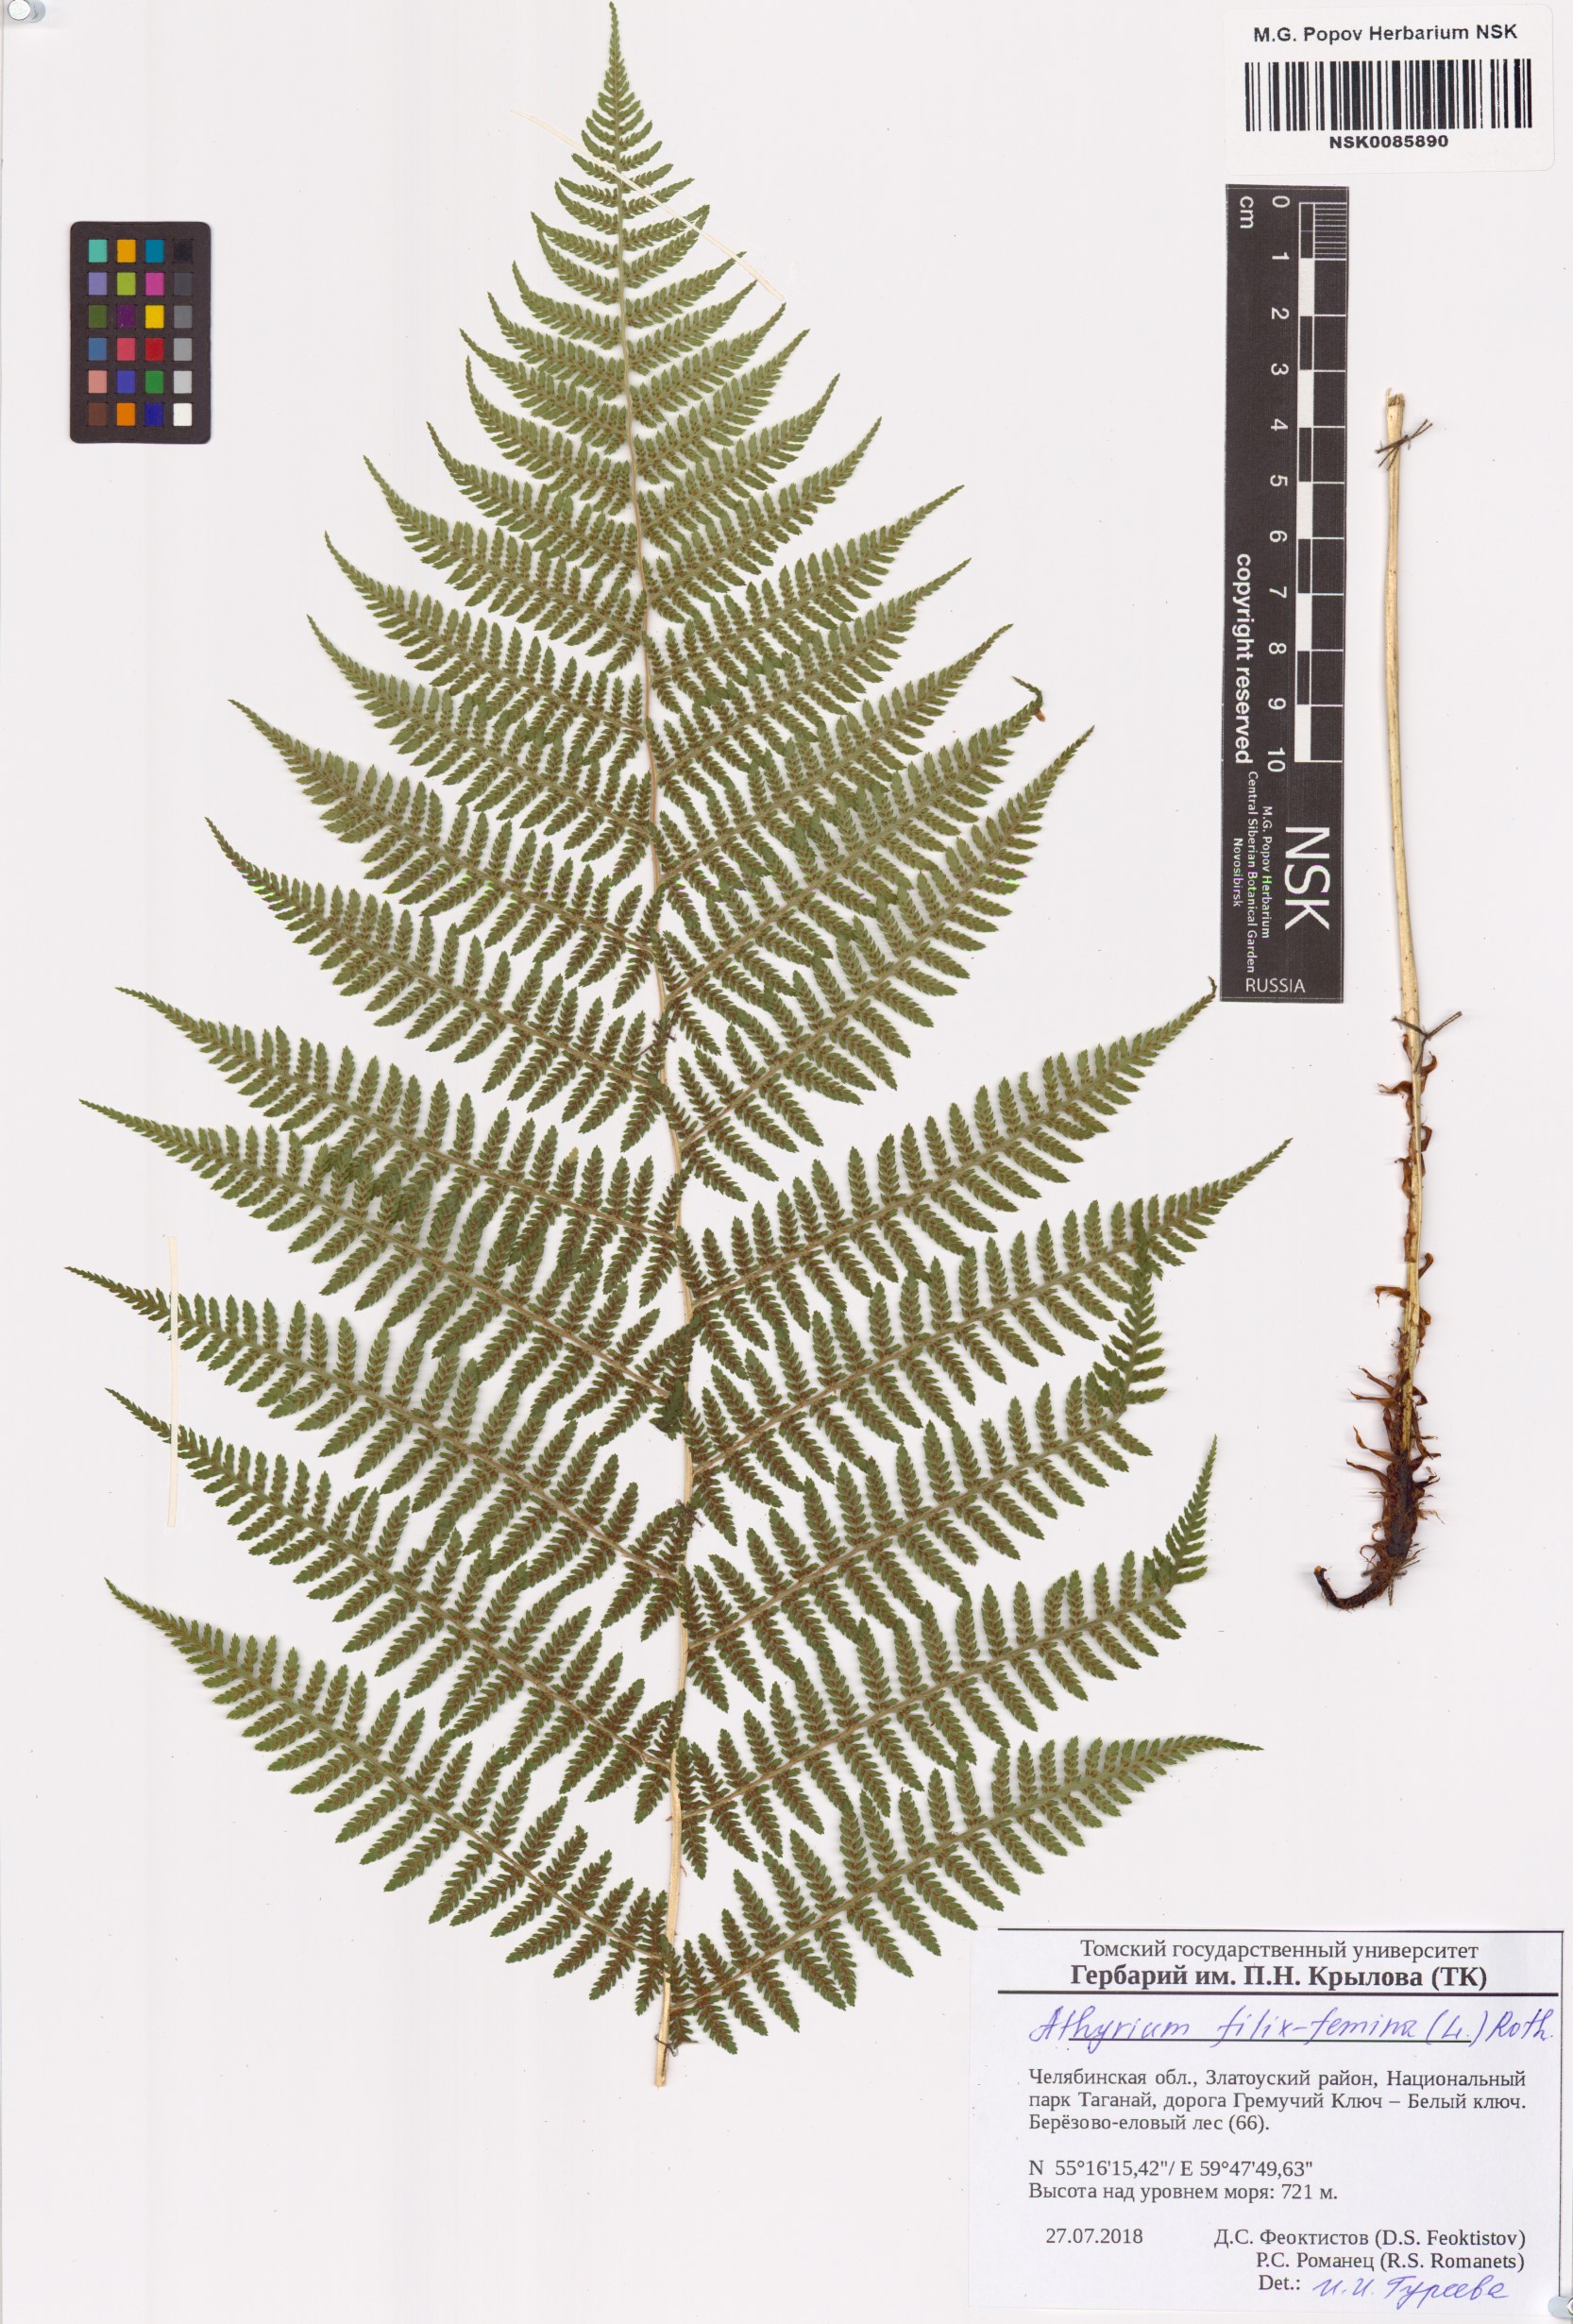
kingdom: Plantae
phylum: Tracheophyta
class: Polypodiopsida
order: Polypodiales
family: Athyriaceae
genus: Athyrium
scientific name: Athyrium filix-femina
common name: Lady fern
